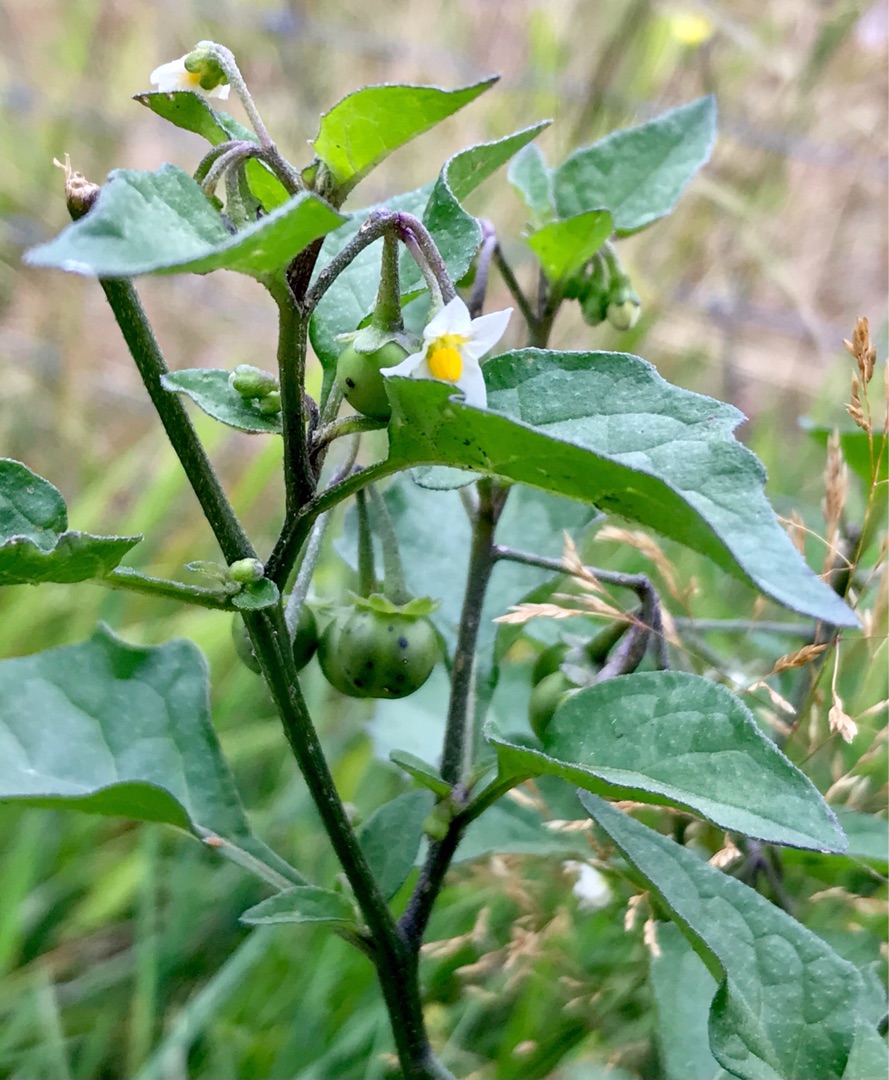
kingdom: Plantae
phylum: Tracheophyta
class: Magnoliopsida
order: Solanales
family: Solanaceae
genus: Solanum
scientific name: Solanum nigrum
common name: Sort natskygge
